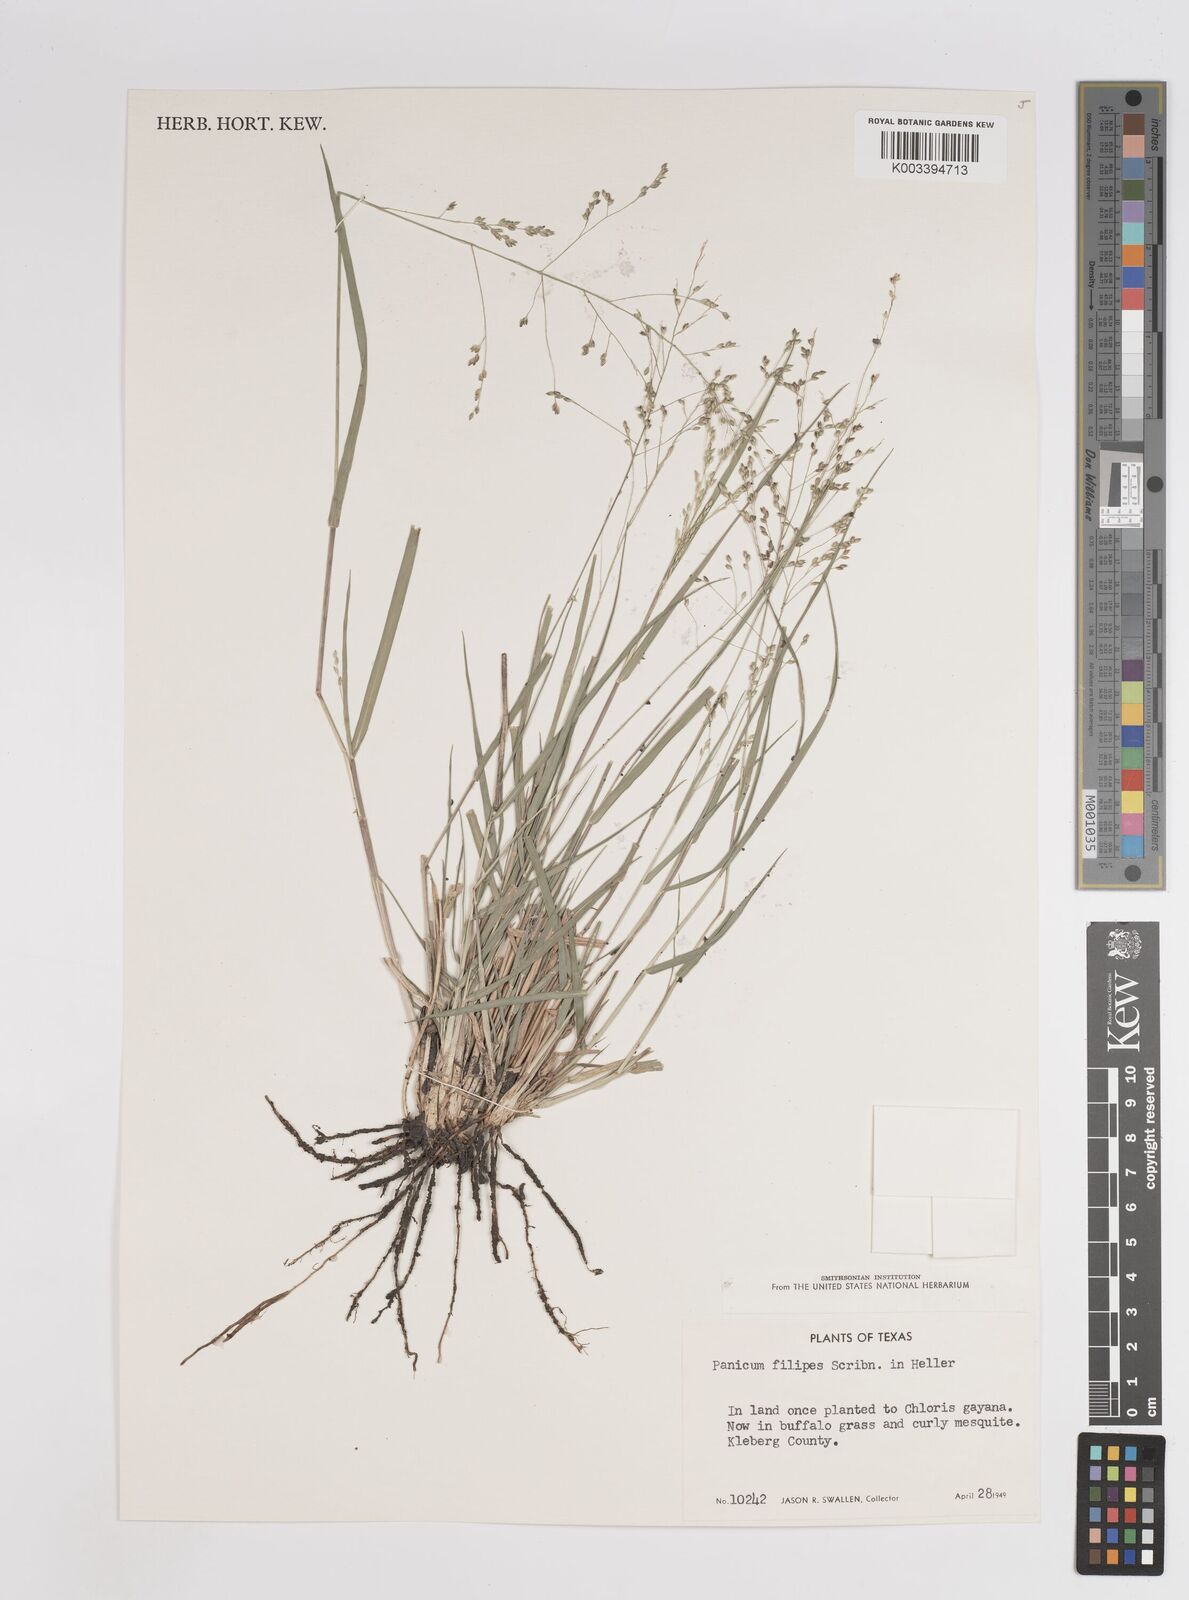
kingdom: Plantae
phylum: Tracheophyta
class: Liliopsida
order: Poales
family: Poaceae
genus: Panicum
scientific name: Panicum hallii
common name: Hall's witchgrass
